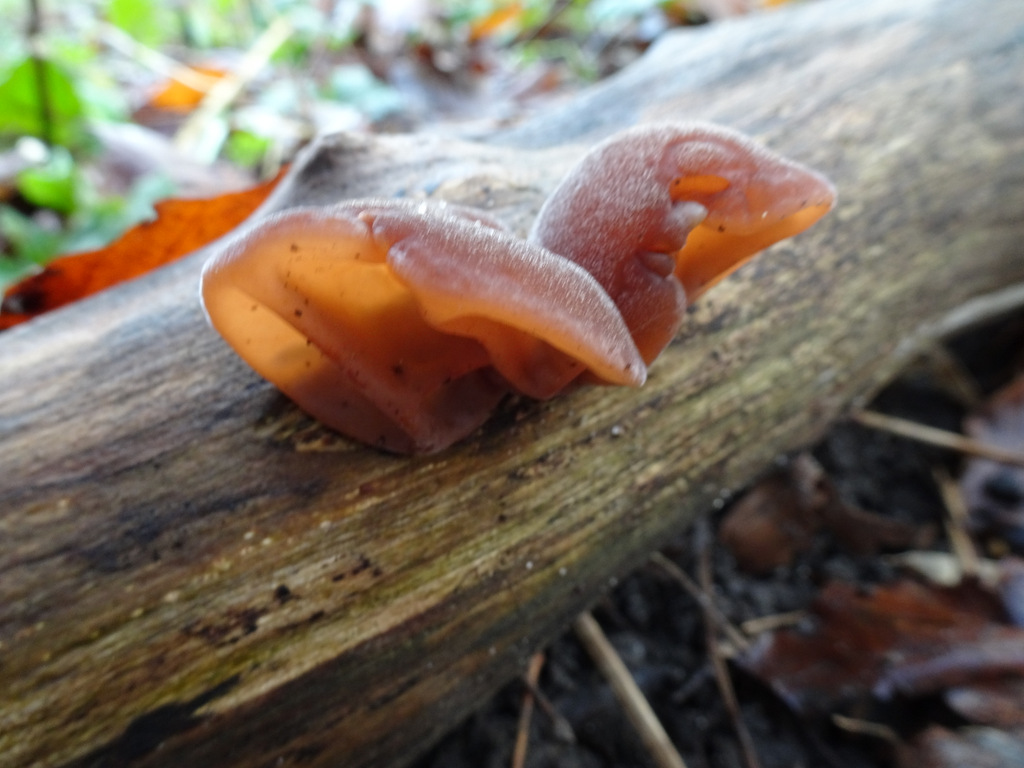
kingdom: Fungi
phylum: Basidiomycota
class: Agaricomycetes
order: Auriculariales
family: Auriculariaceae
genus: Auricularia
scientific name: Auricularia auricula-judae
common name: almindelig judasøre
